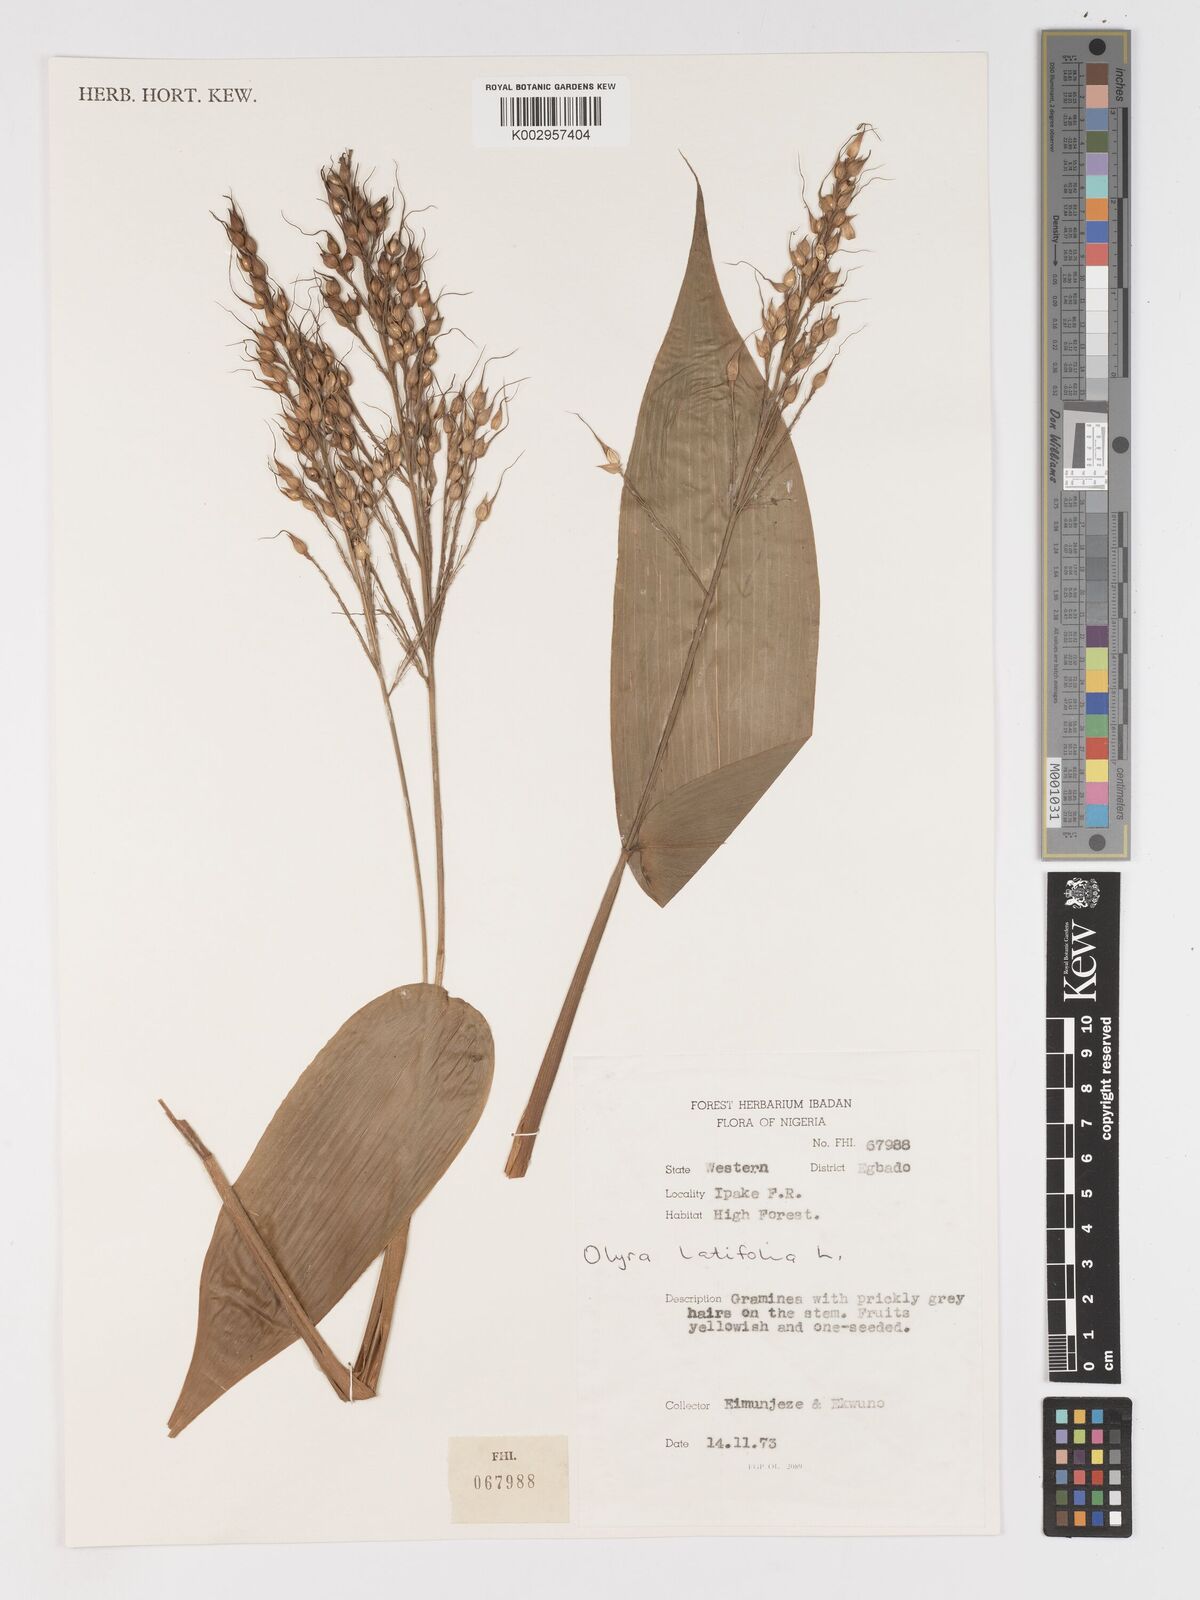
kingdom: Plantae
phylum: Tracheophyta
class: Liliopsida
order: Poales
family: Poaceae
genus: Olyra
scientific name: Olyra latifolia
